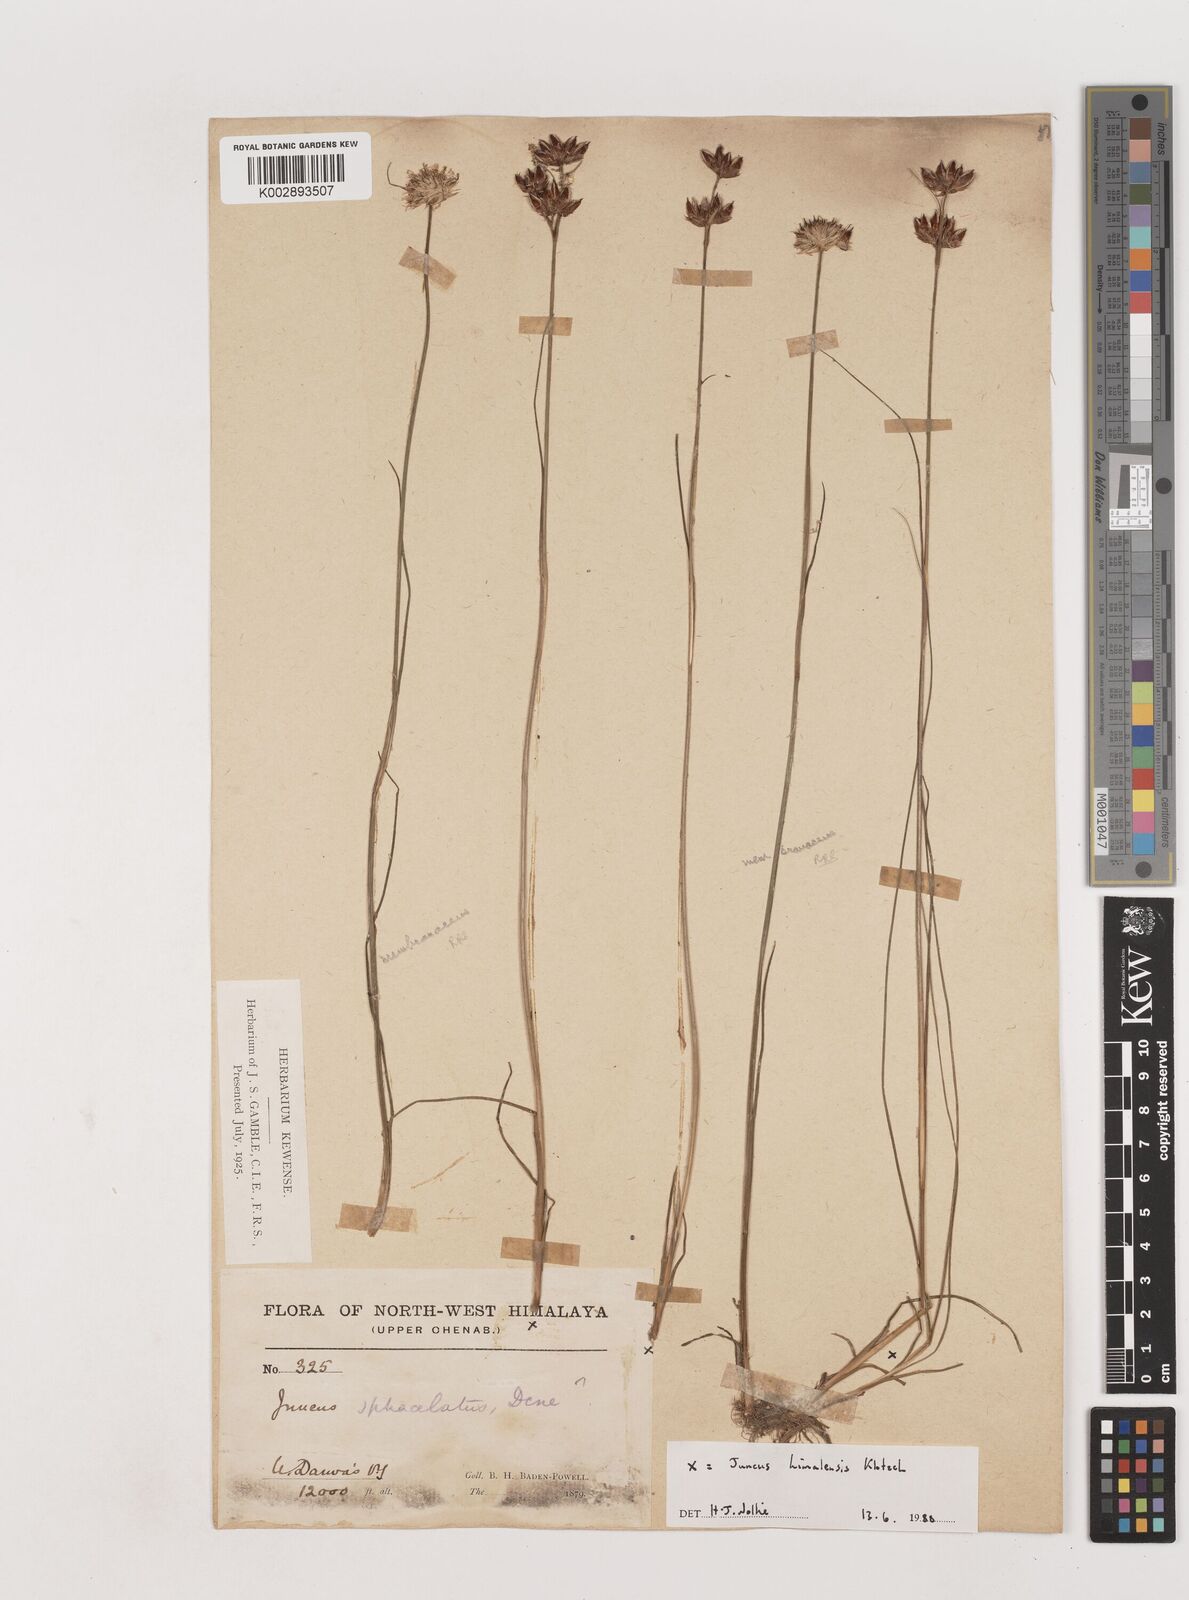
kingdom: Plantae
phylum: Tracheophyta
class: Liliopsida
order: Poales
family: Juncaceae
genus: Juncus
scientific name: Juncus himalensis
